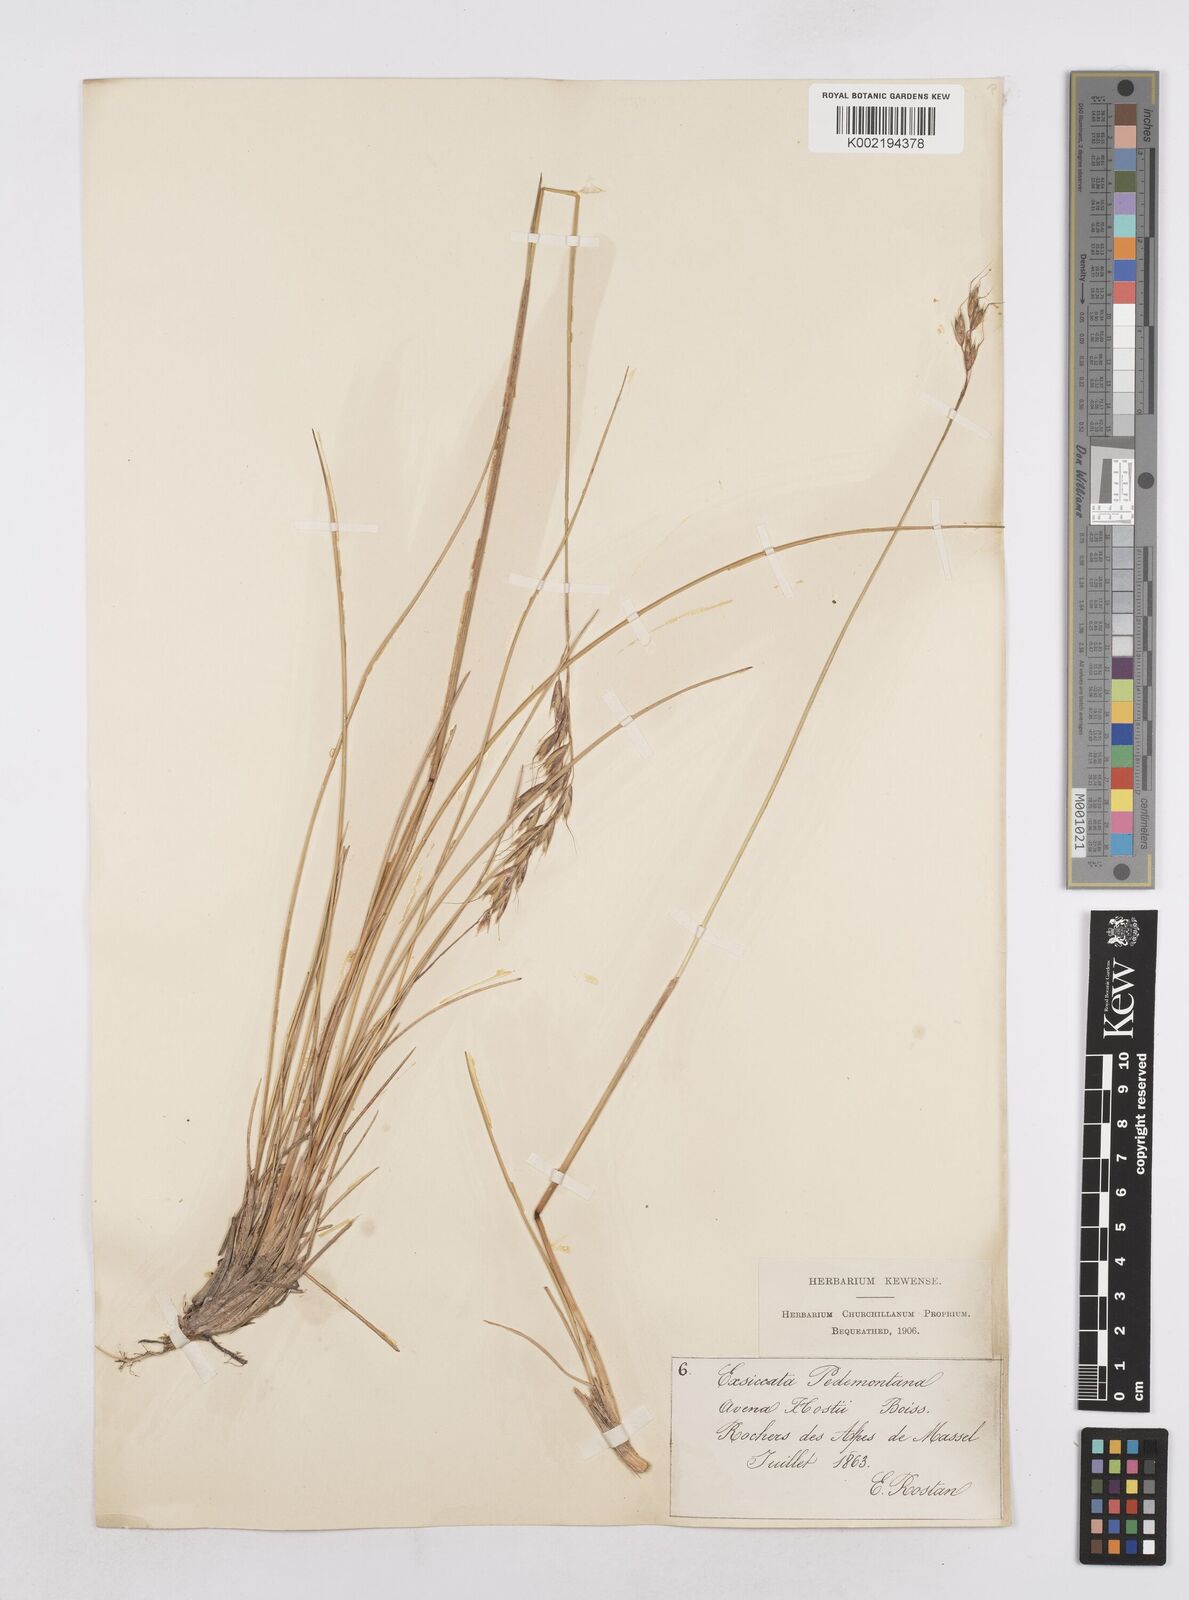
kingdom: Plantae
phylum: Tracheophyta
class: Liliopsida
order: Poales
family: Poaceae
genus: Helictotrichon
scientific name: Helictotrichon parlatorei
